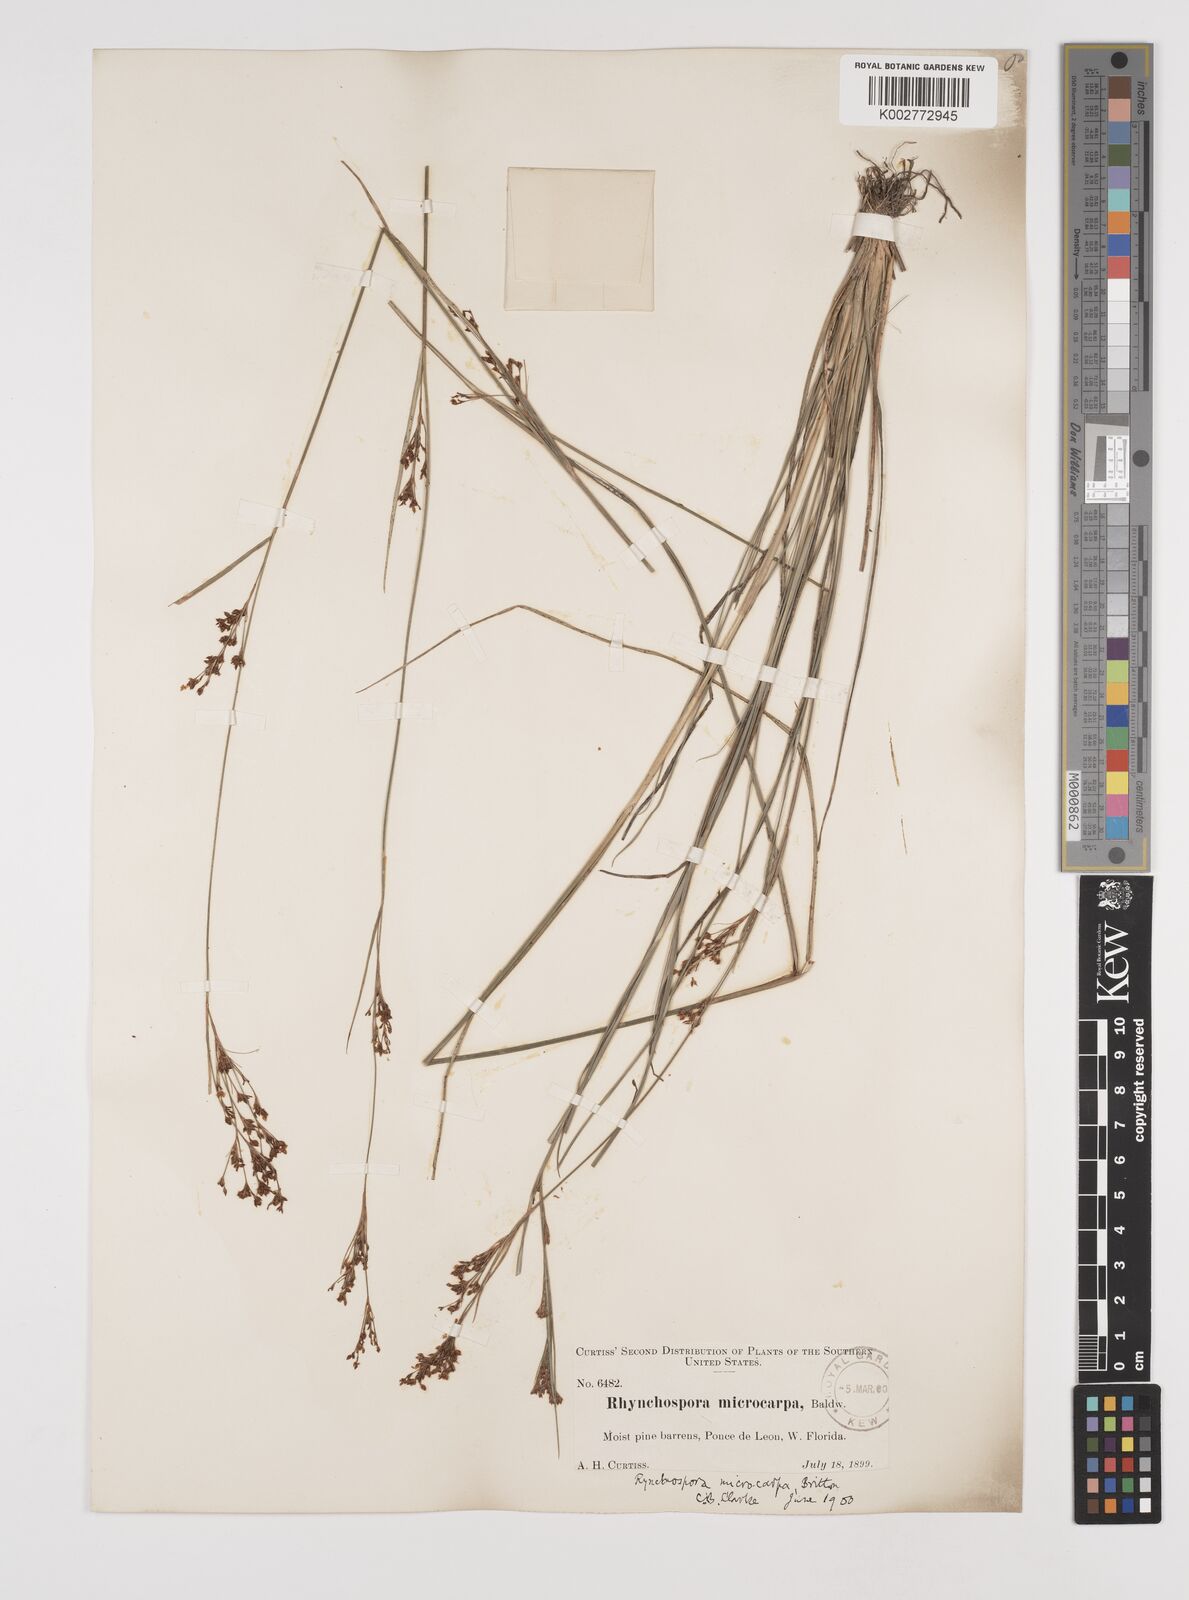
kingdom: Plantae
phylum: Tracheophyta
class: Liliopsida
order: Poales
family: Cyperaceae
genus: Rhynchospora
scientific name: Rhynchospora microcarpa
